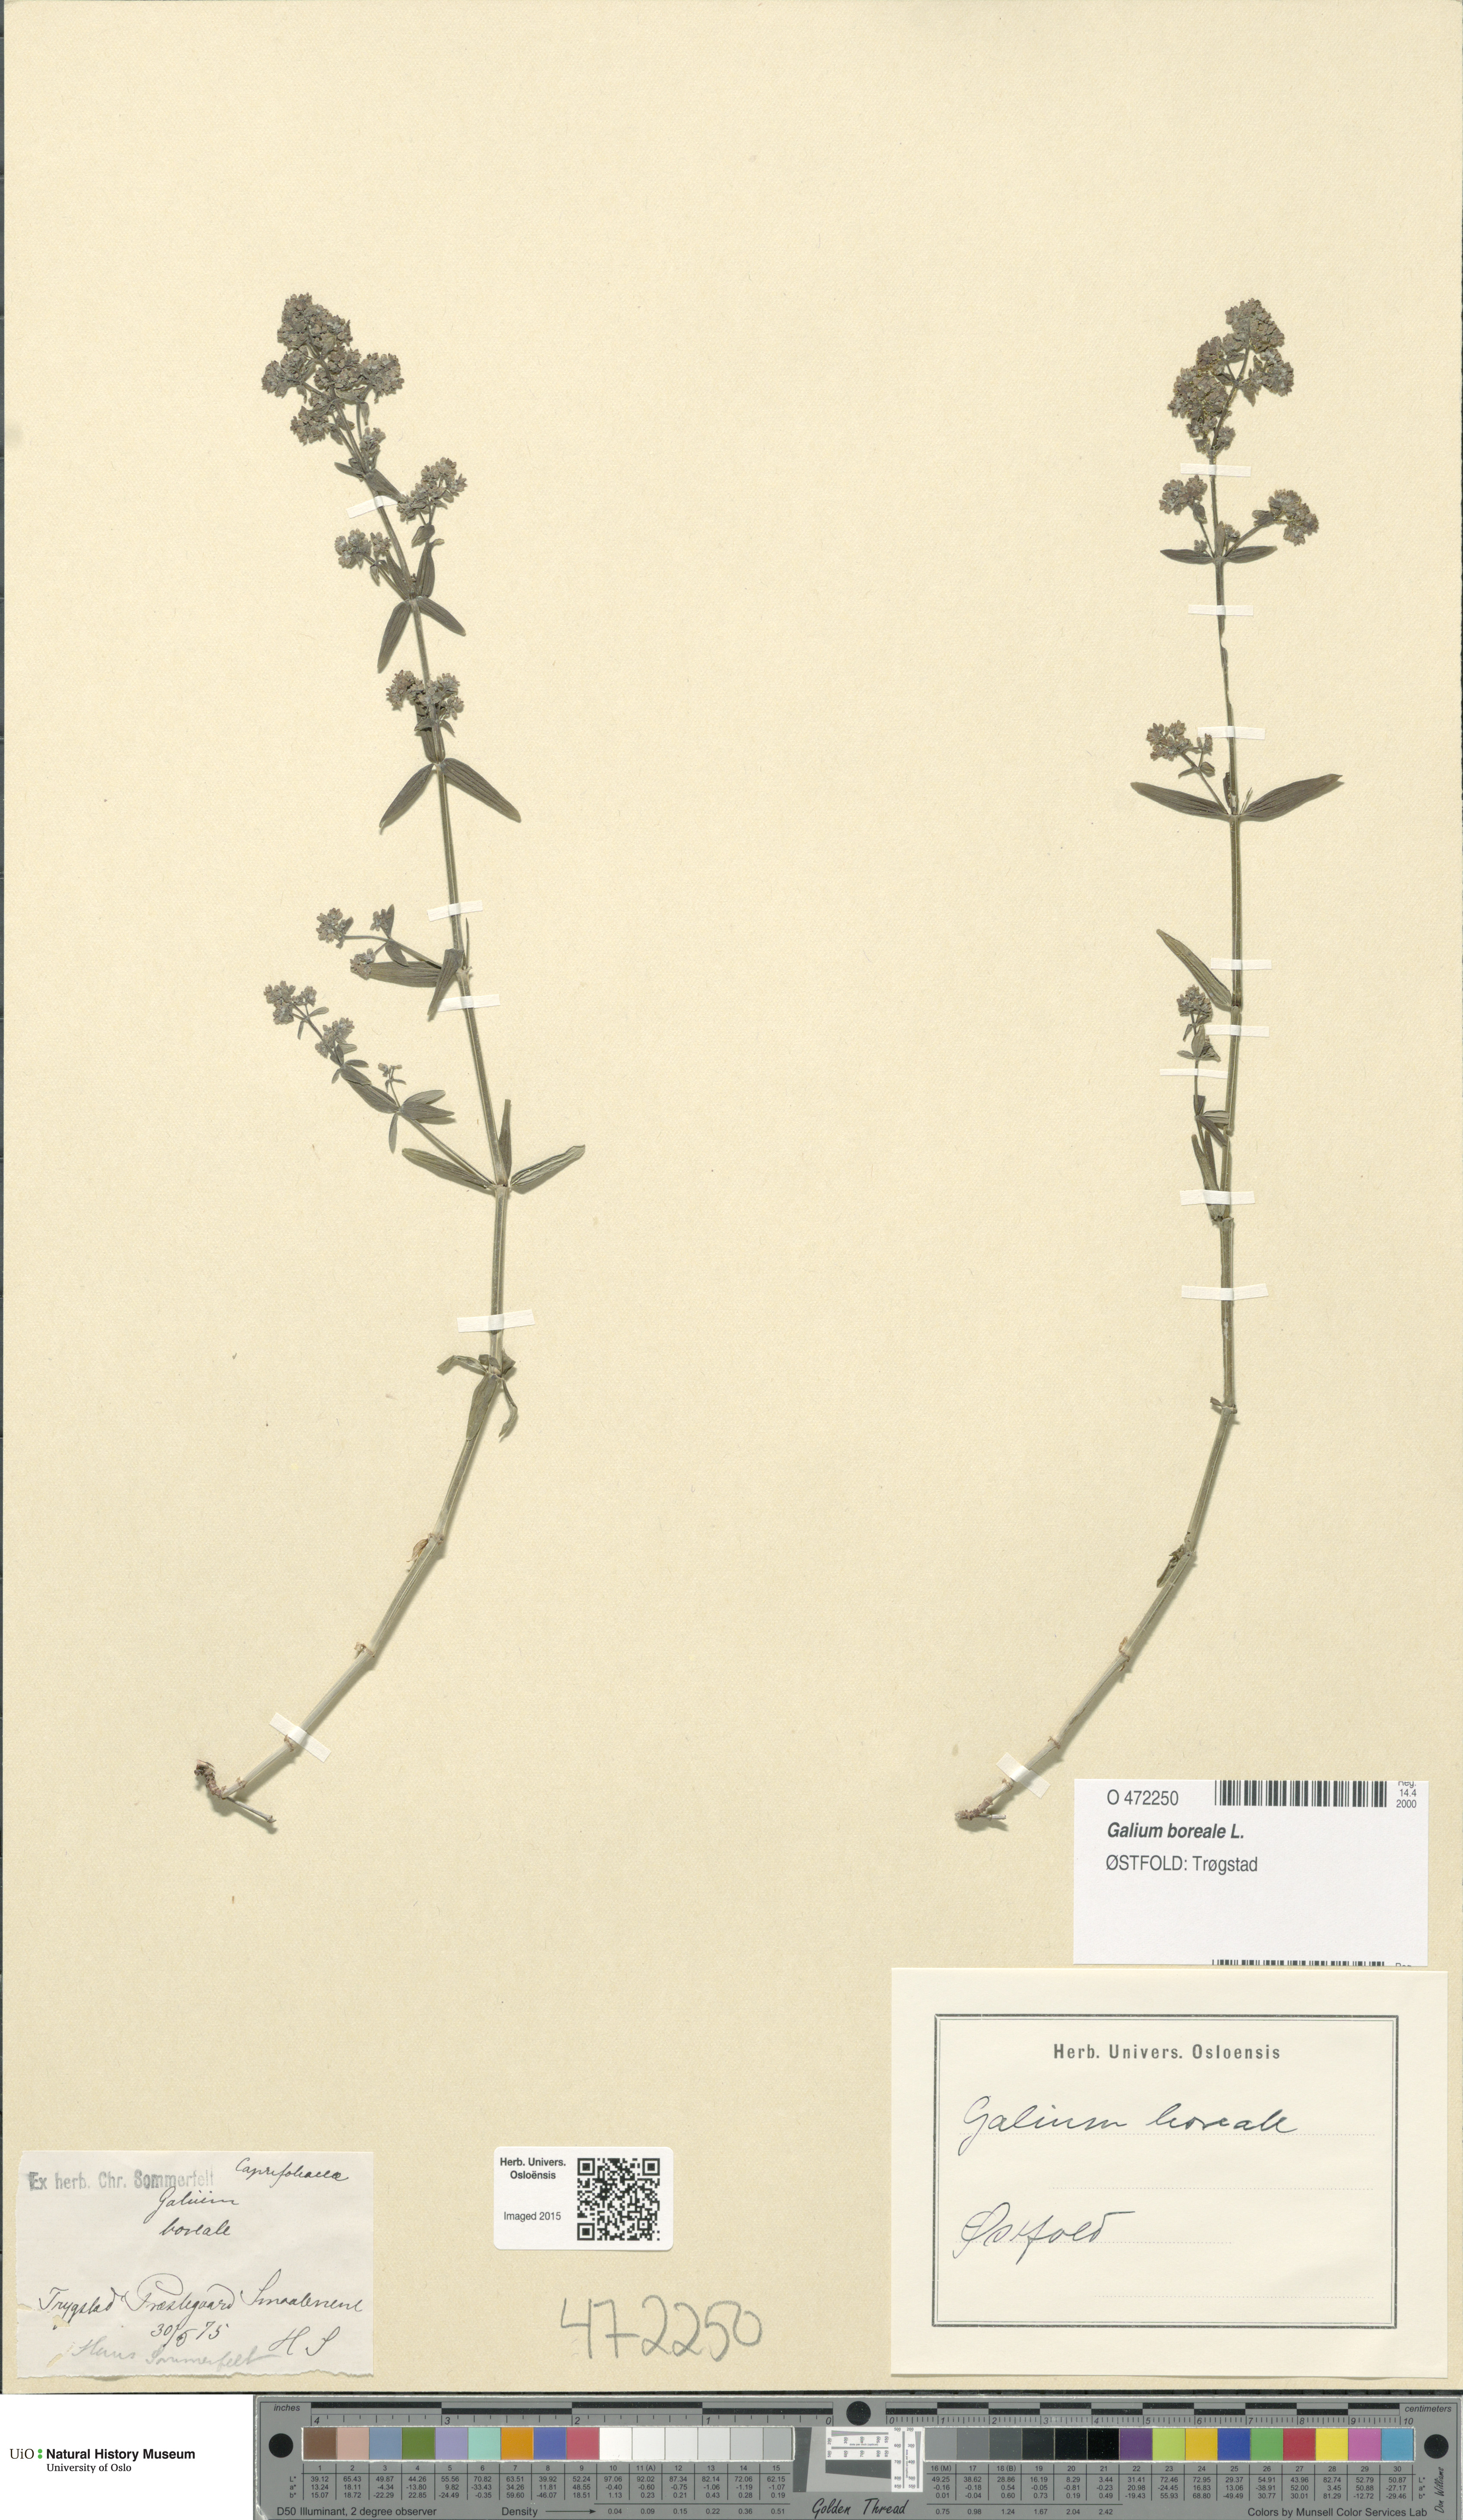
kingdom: Plantae
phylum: Tracheophyta
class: Magnoliopsida
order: Gentianales
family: Rubiaceae
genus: Galium
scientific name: Galium boreale
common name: Northern bedstraw
